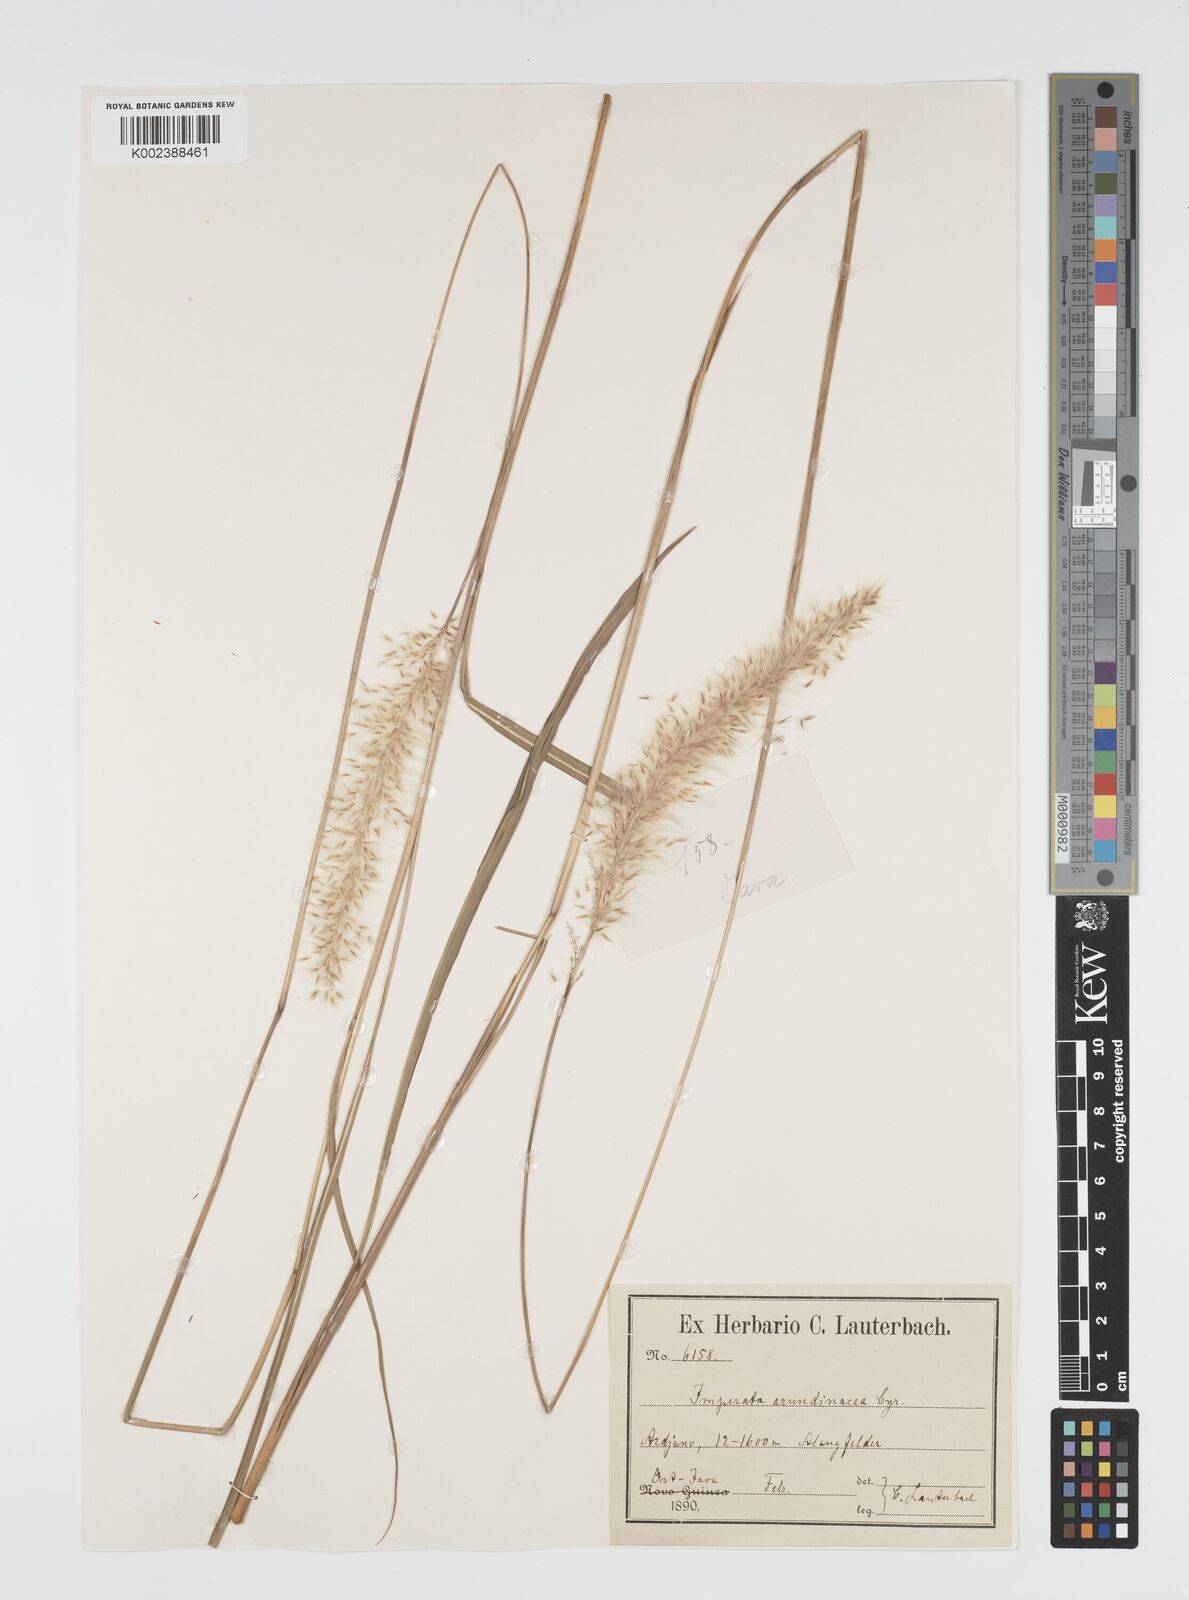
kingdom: Plantae
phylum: Tracheophyta
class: Liliopsida
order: Poales
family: Poaceae
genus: Imperata
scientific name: Imperata
